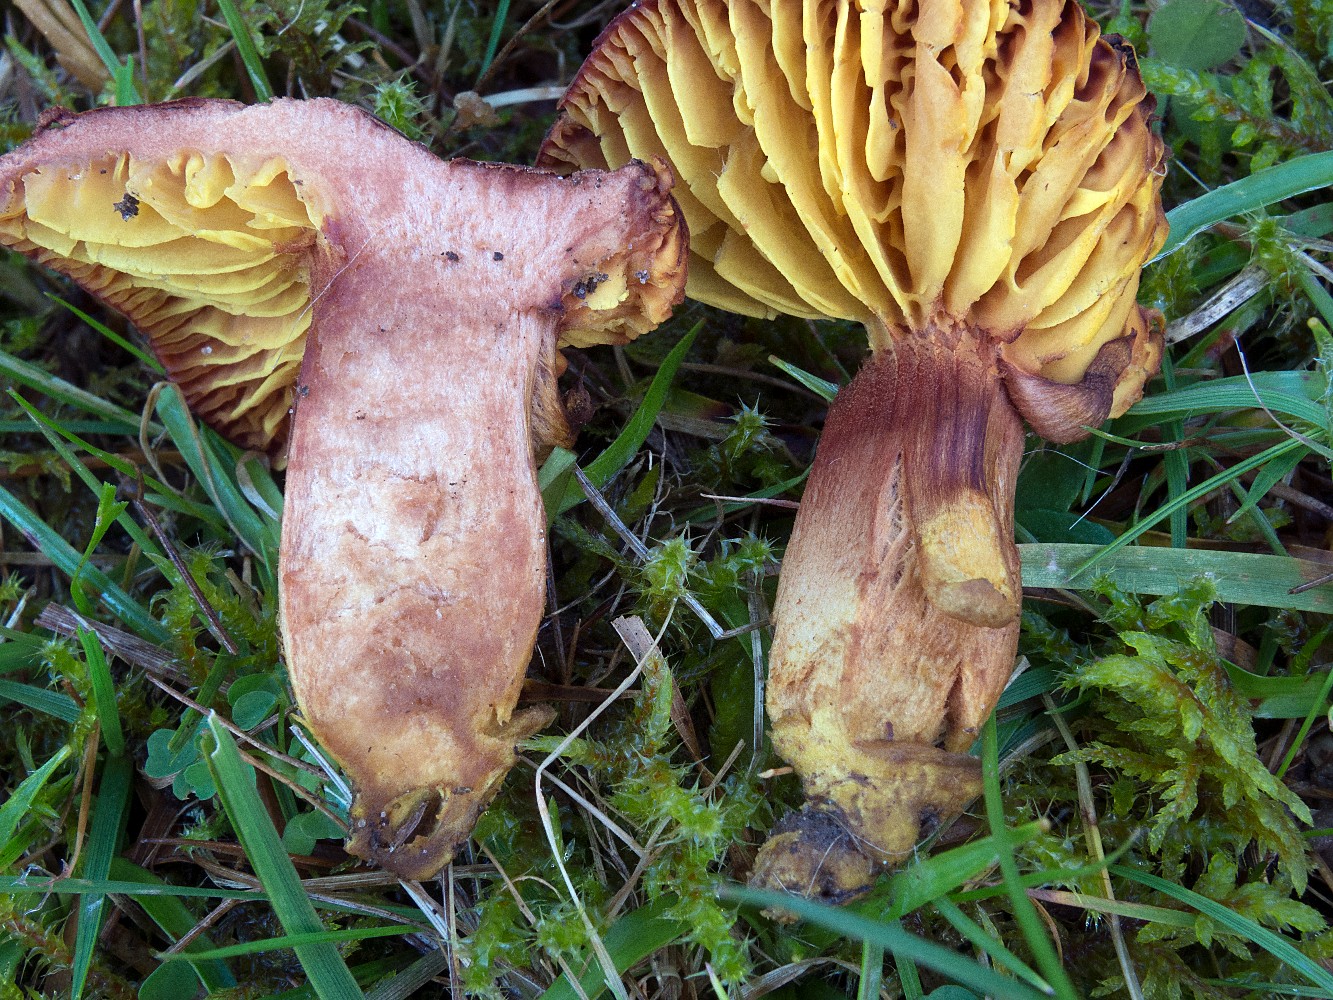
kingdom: Fungi
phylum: Basidiomycota
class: Agaricomycetes
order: Boletales
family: Boletaceae
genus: Phylloporus
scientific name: Phylloporus pelletieri
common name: lamelrørhat
